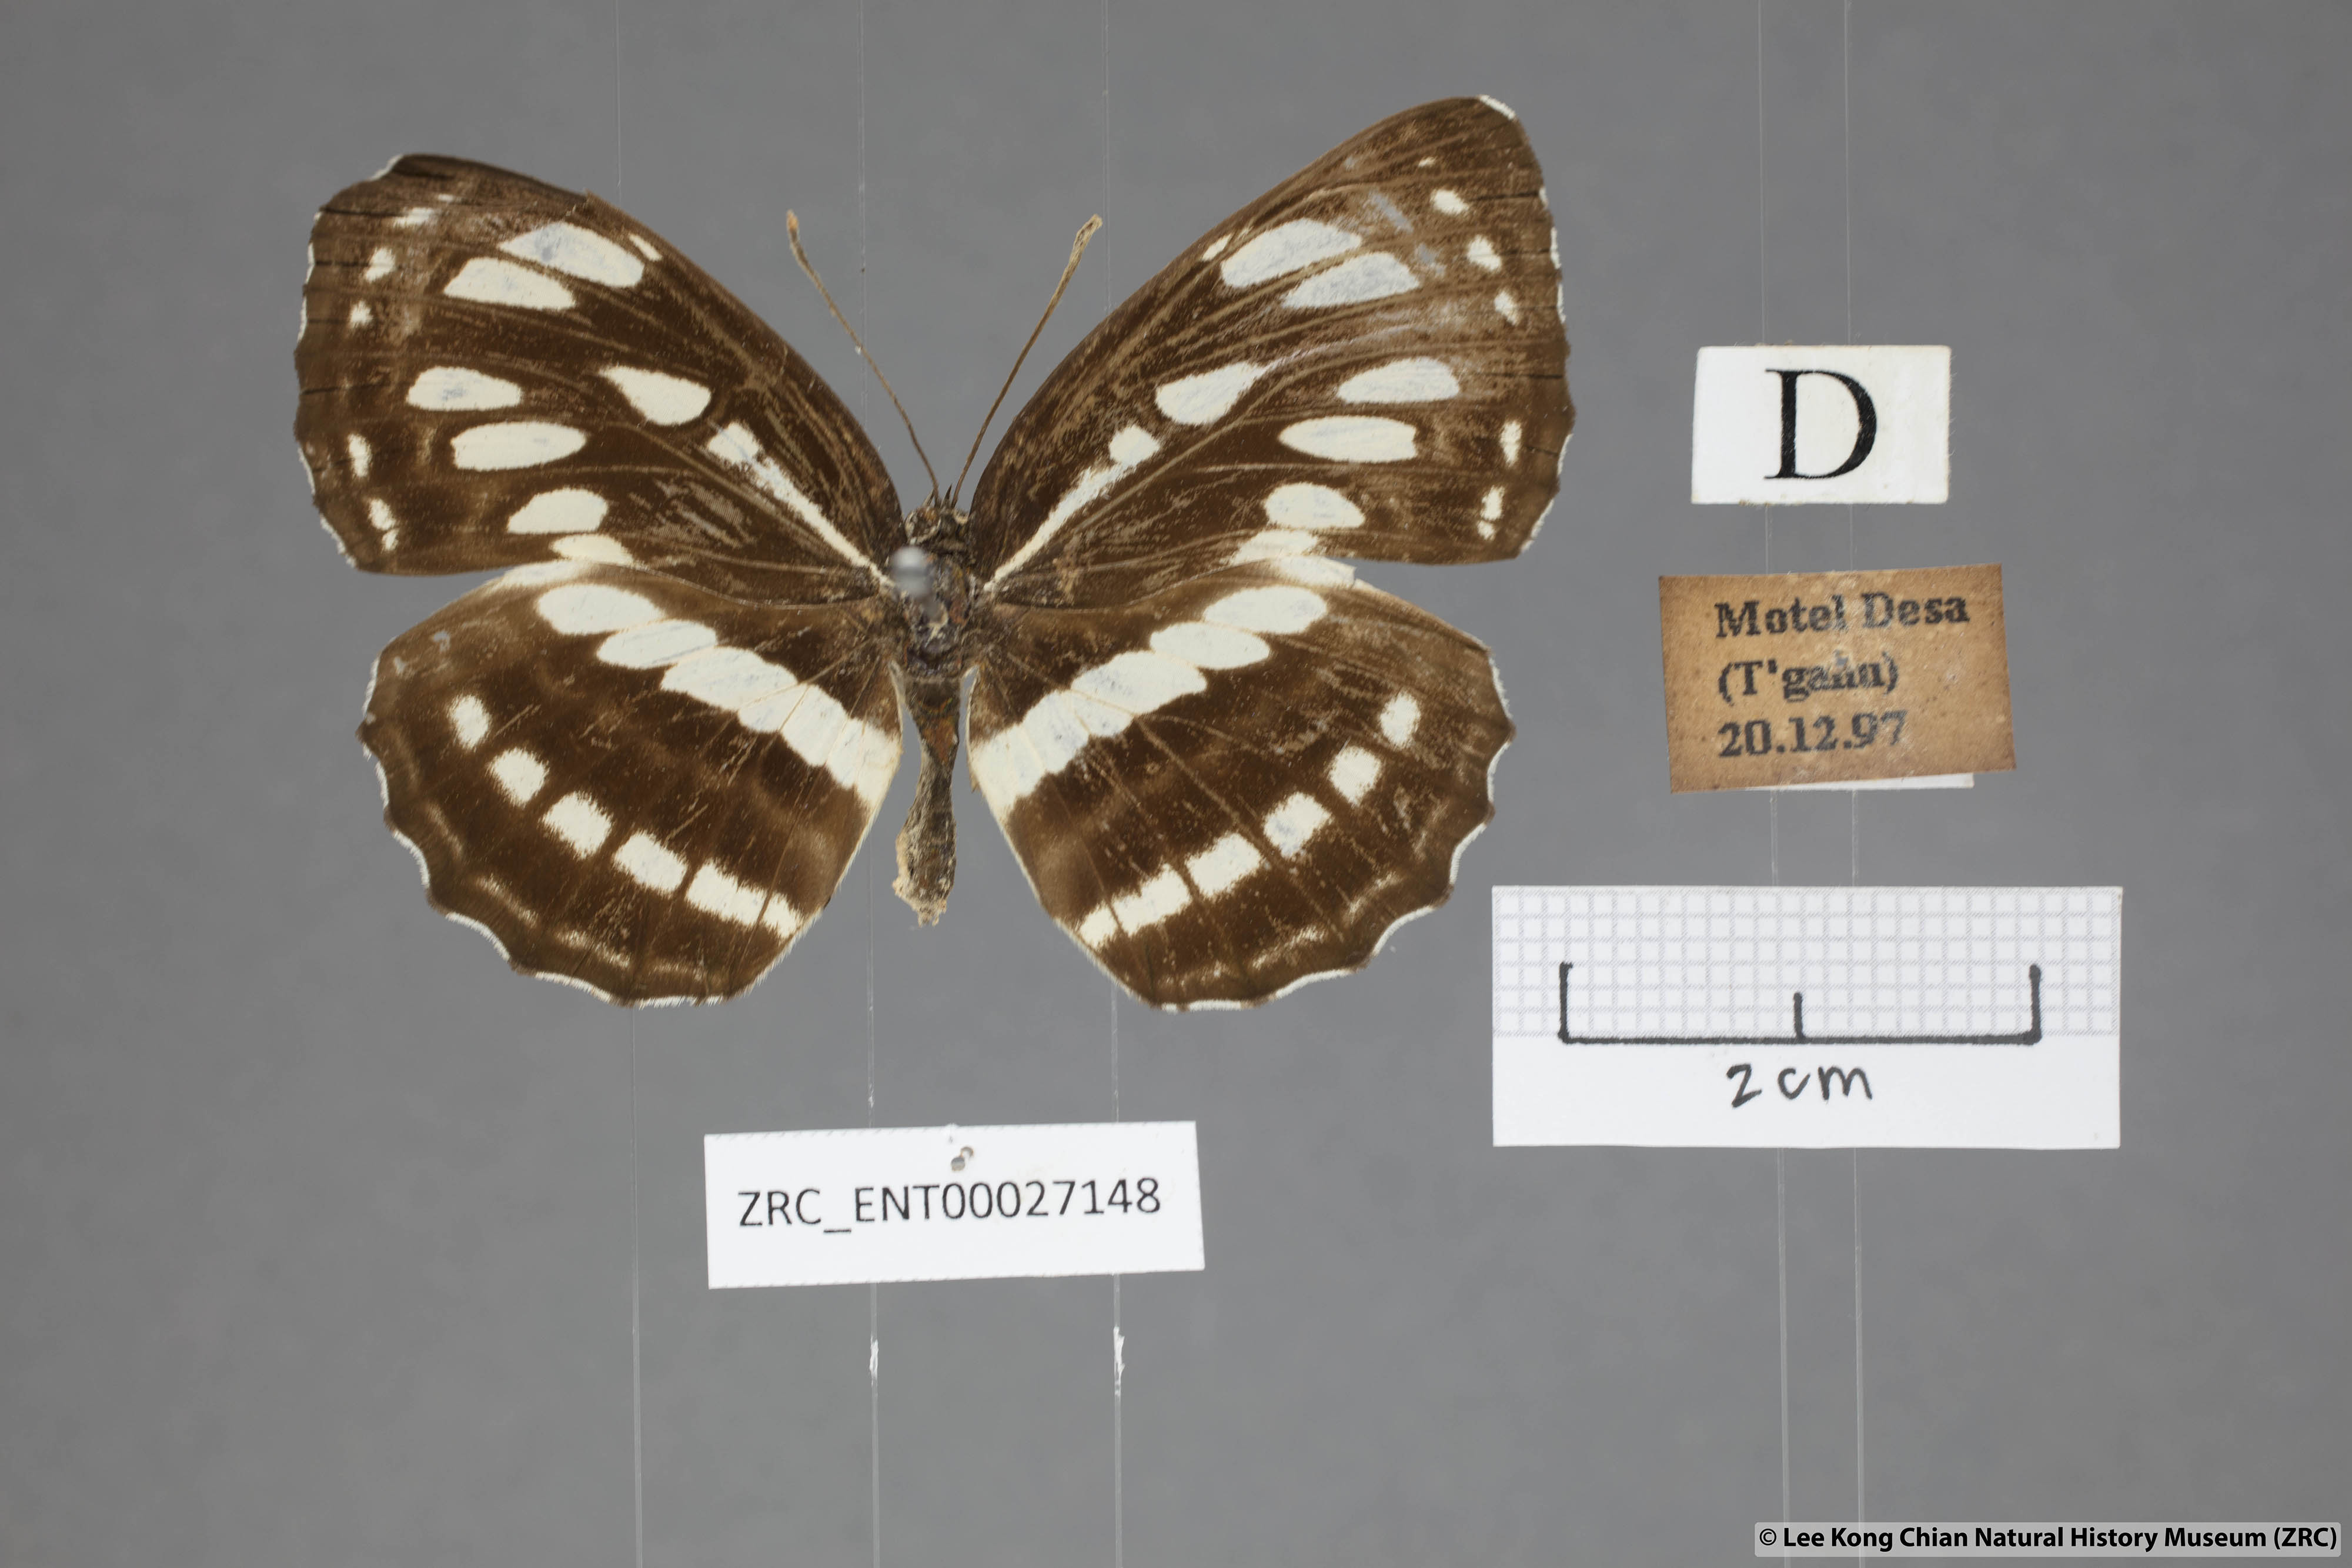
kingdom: Animalia
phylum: Arthropoda
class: Insecta
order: Lepidoptera
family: Nymphalidae
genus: Neptis
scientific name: Neptis hylas
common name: Common sailer
